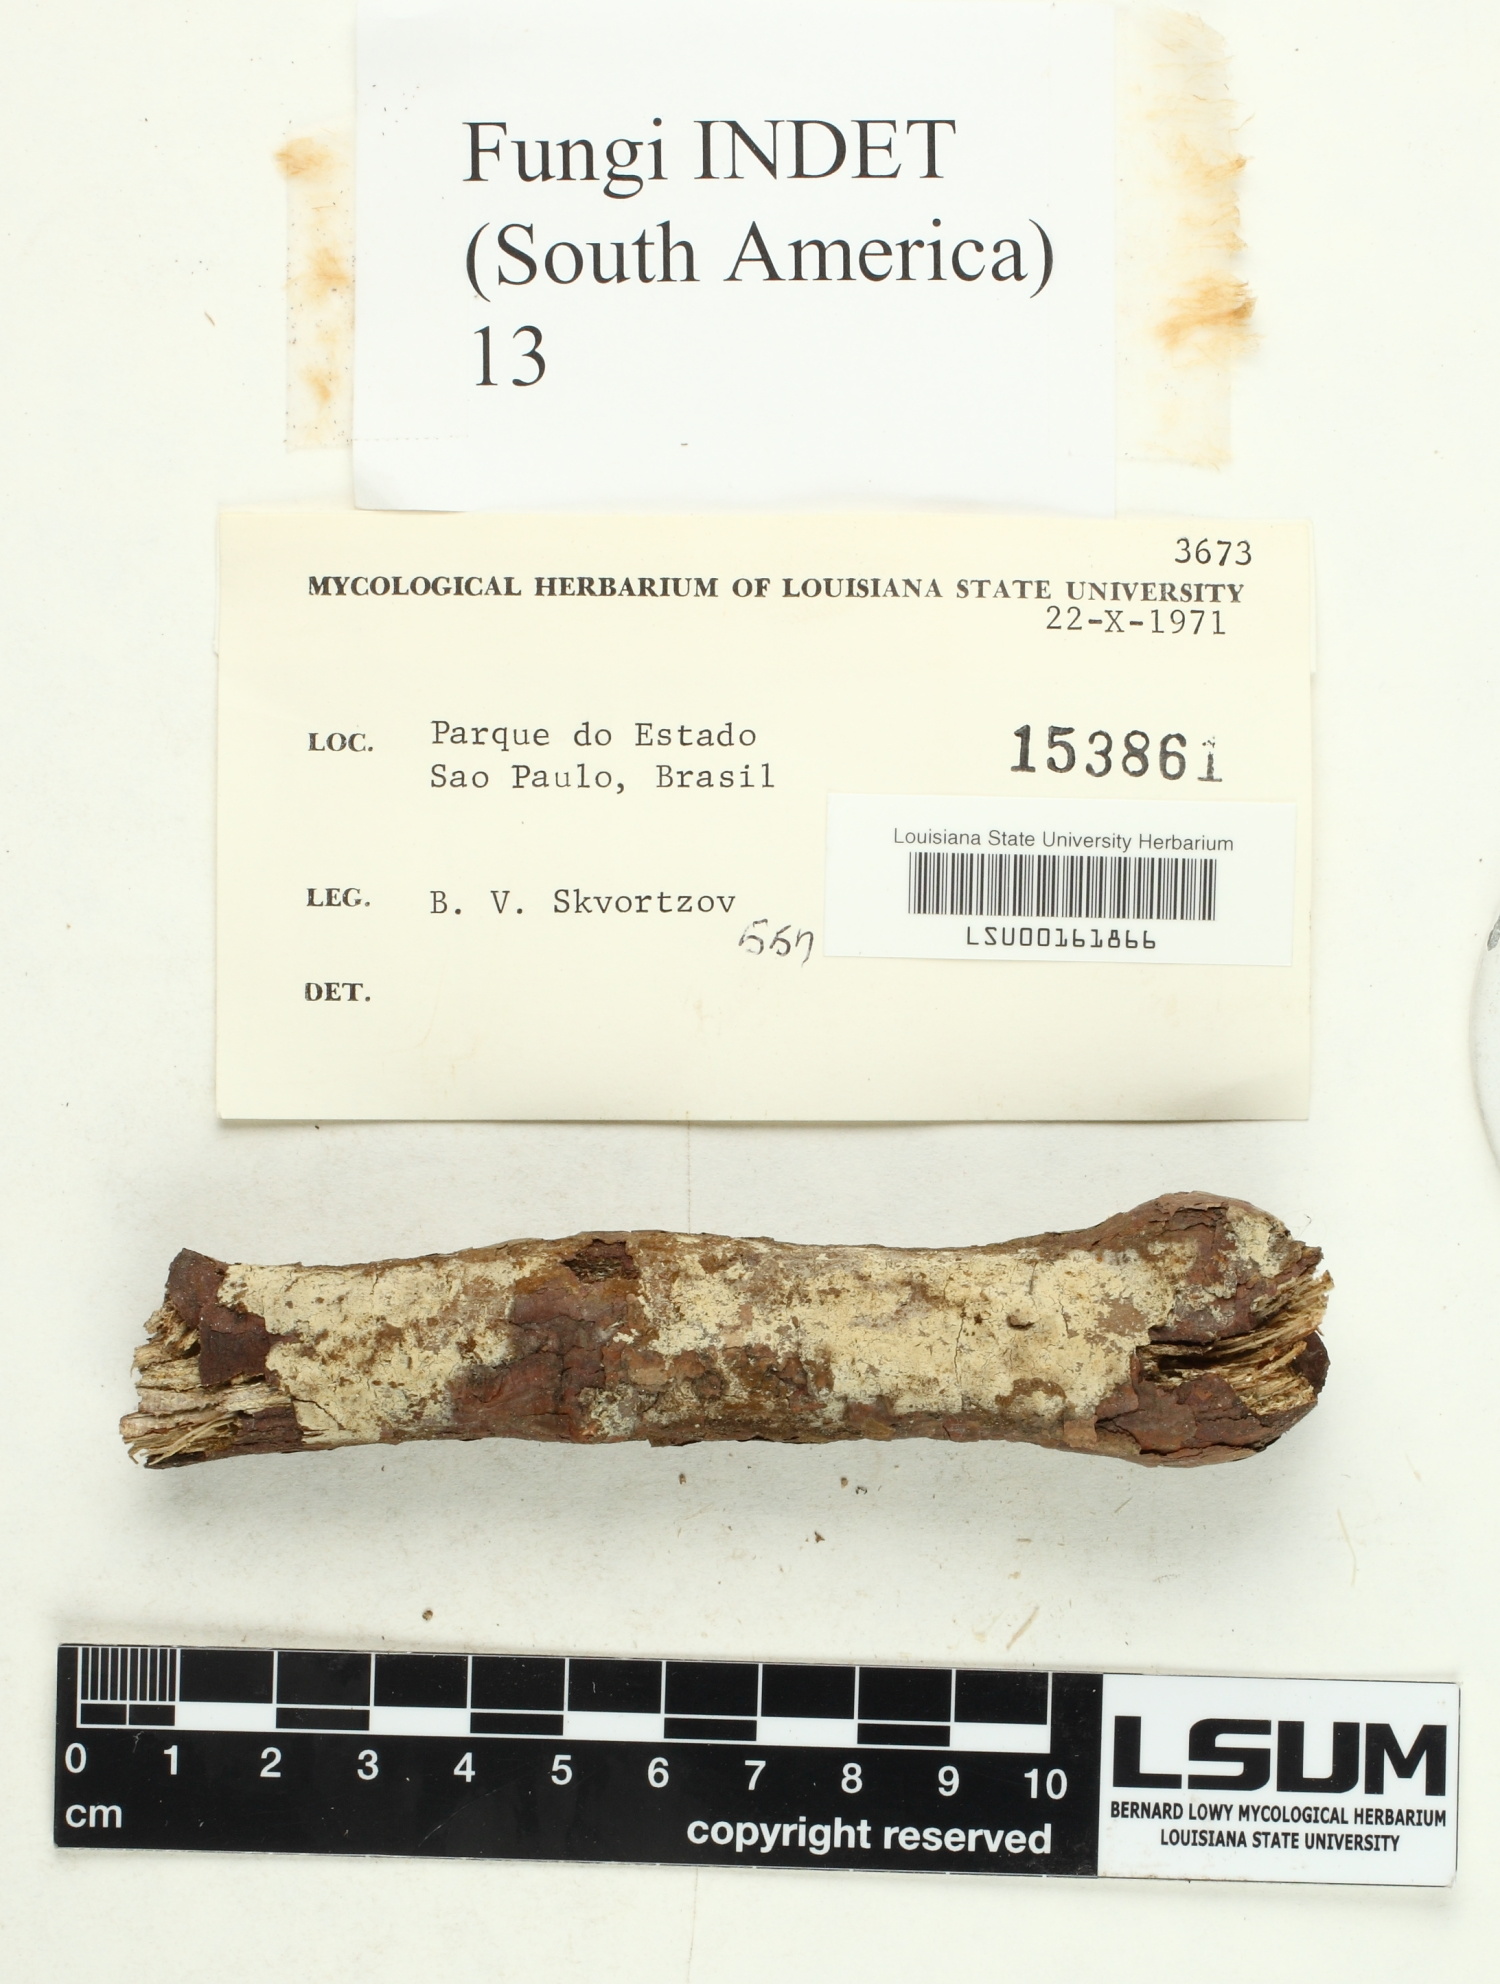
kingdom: Fungi
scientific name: Fungi
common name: Fungi
